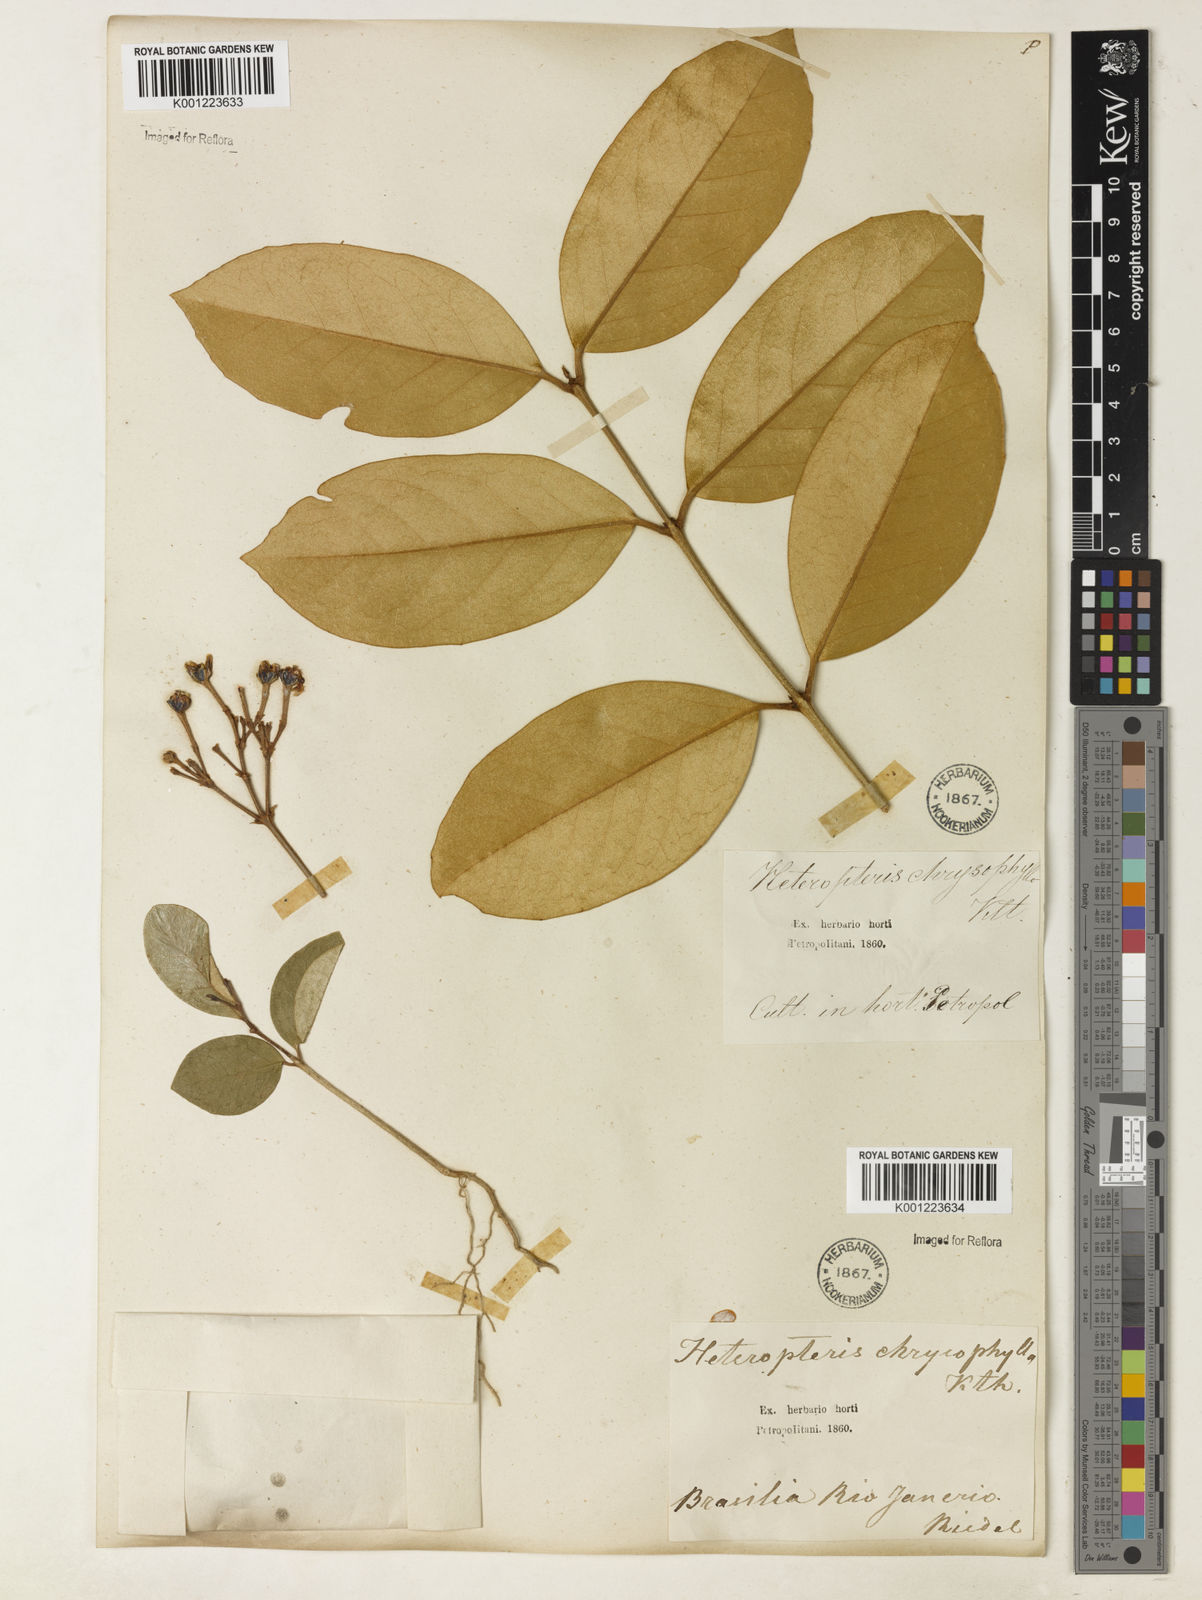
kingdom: Plantae
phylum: Tracheophyta
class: Magnoliopsida
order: Malpighiales
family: Malpighiaceae
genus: Heteropterys
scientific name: Heteropterys chrysophylla
